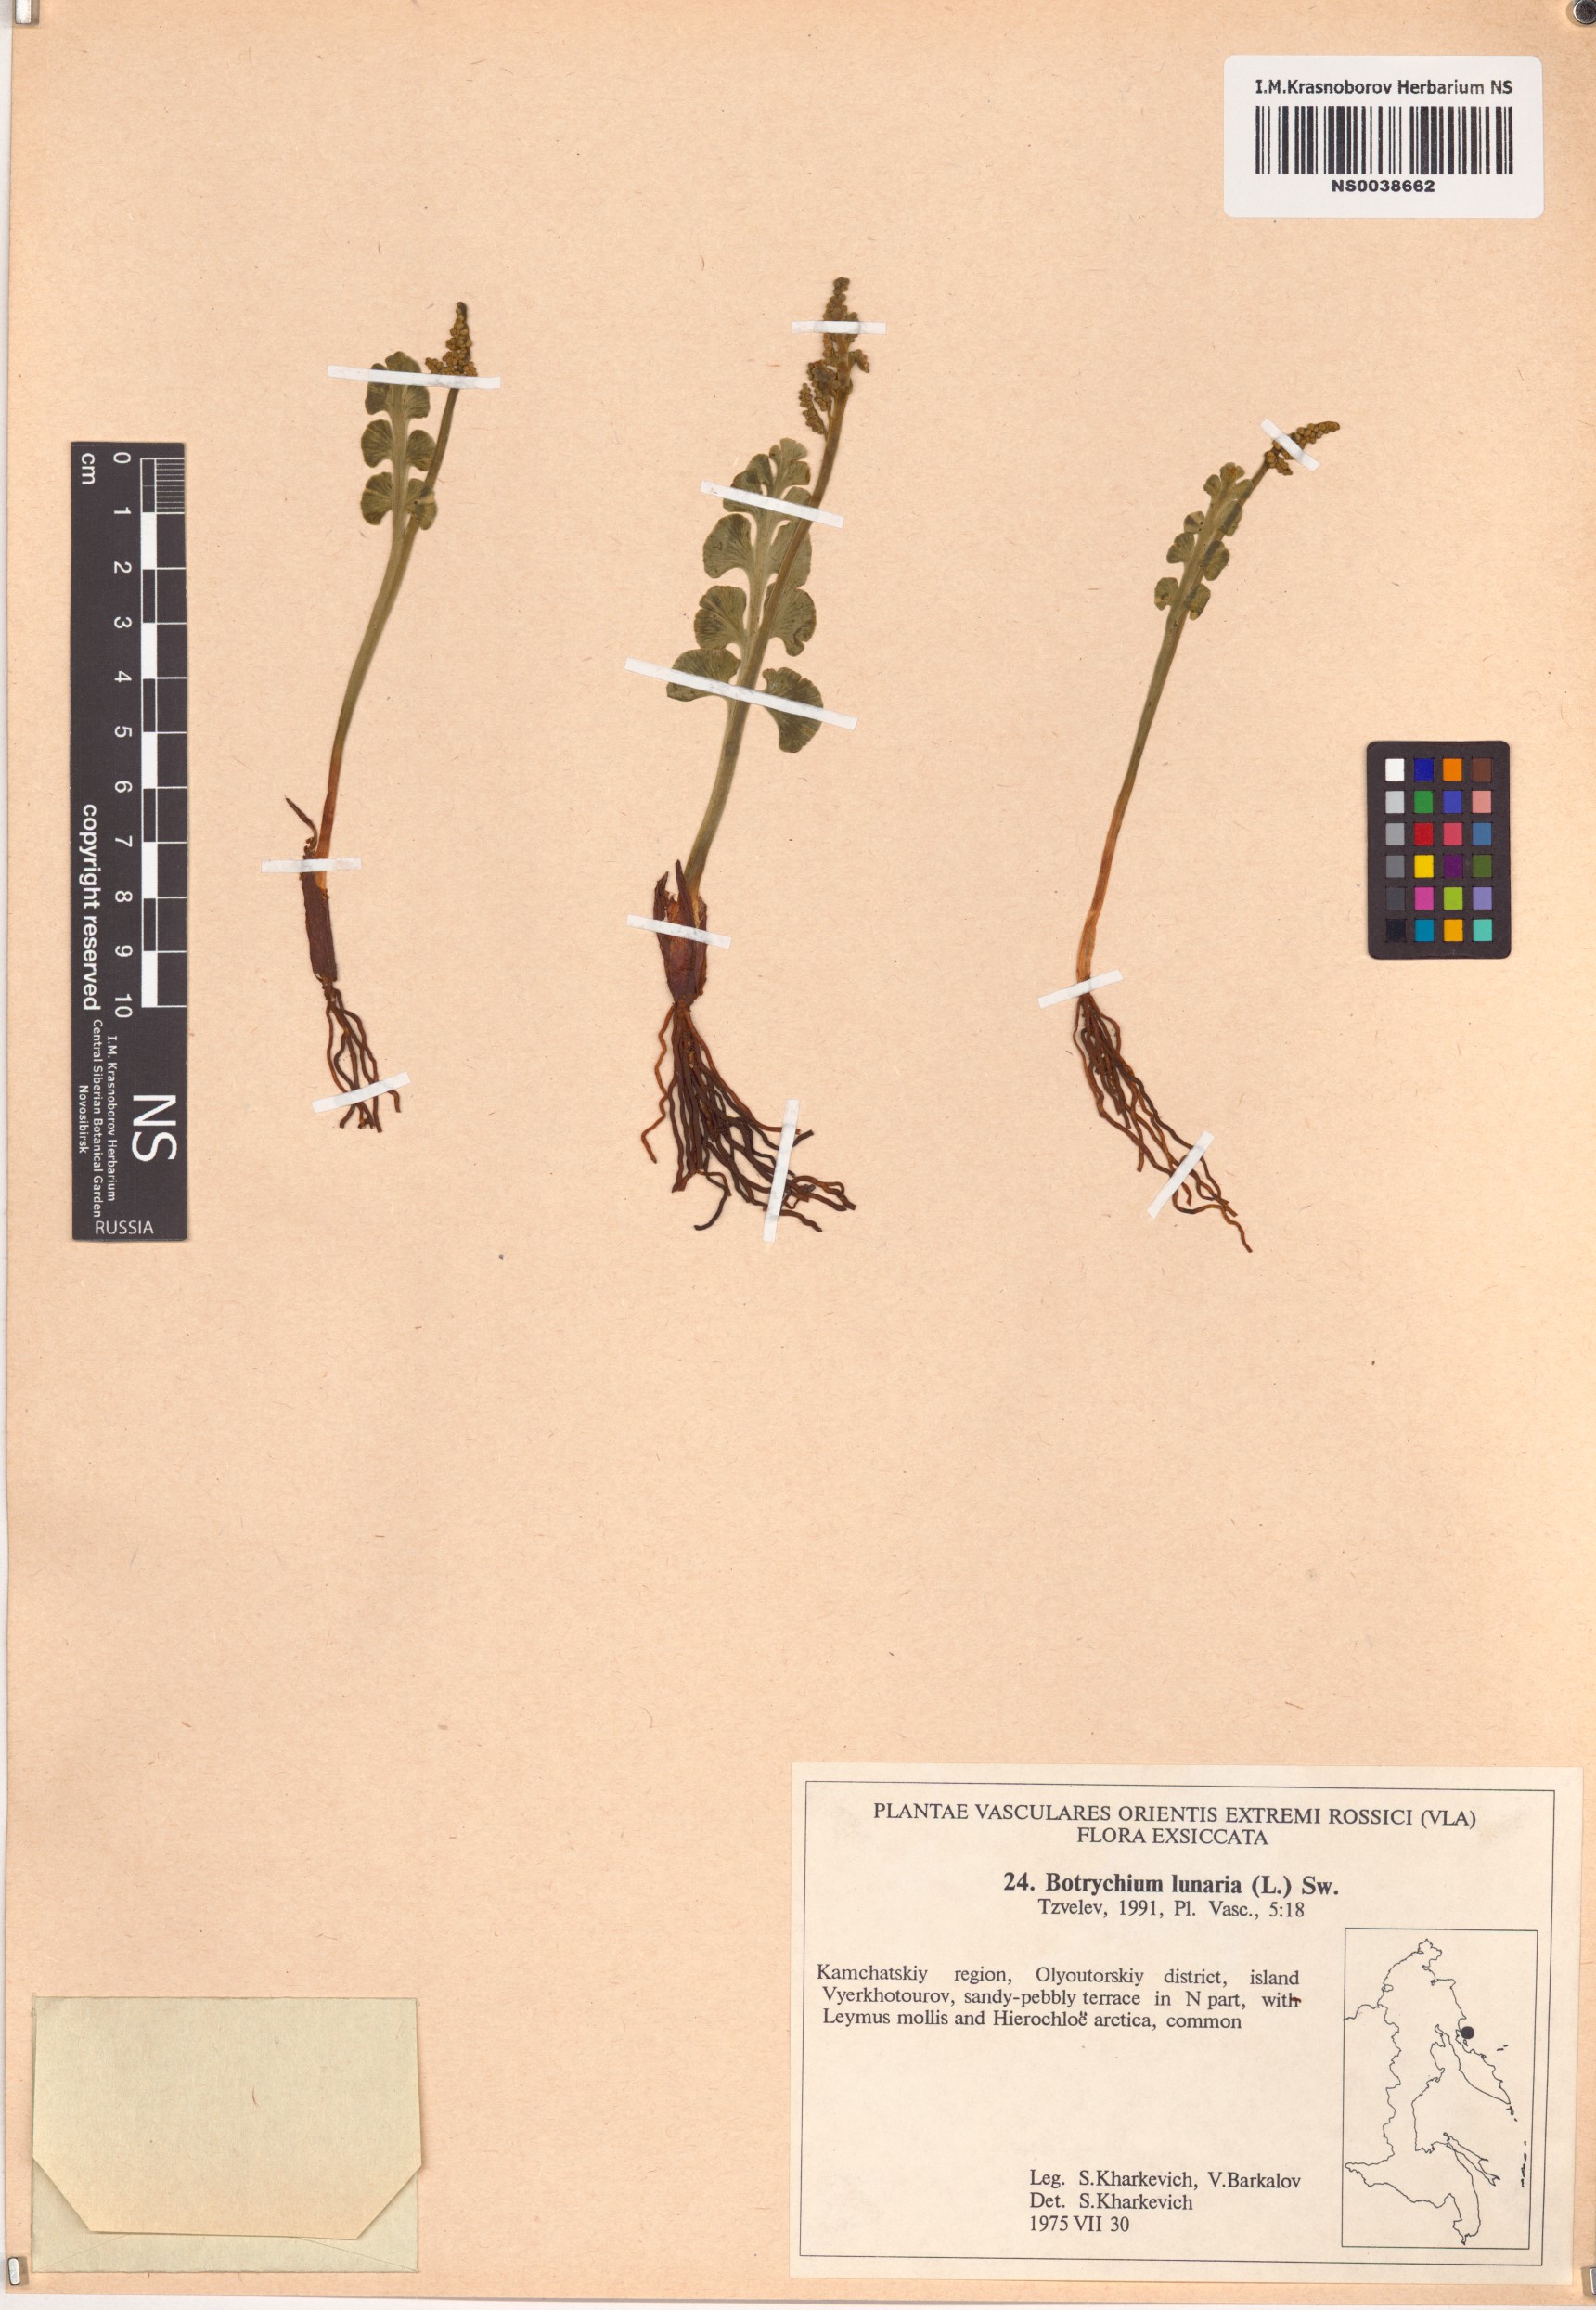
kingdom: Plantae
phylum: Tracheophyta
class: Polypodiopsida
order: Ophioglossales
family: Ophioglossaceae
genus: Botrychium
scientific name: Botrychium lunaria
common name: Moonwort
